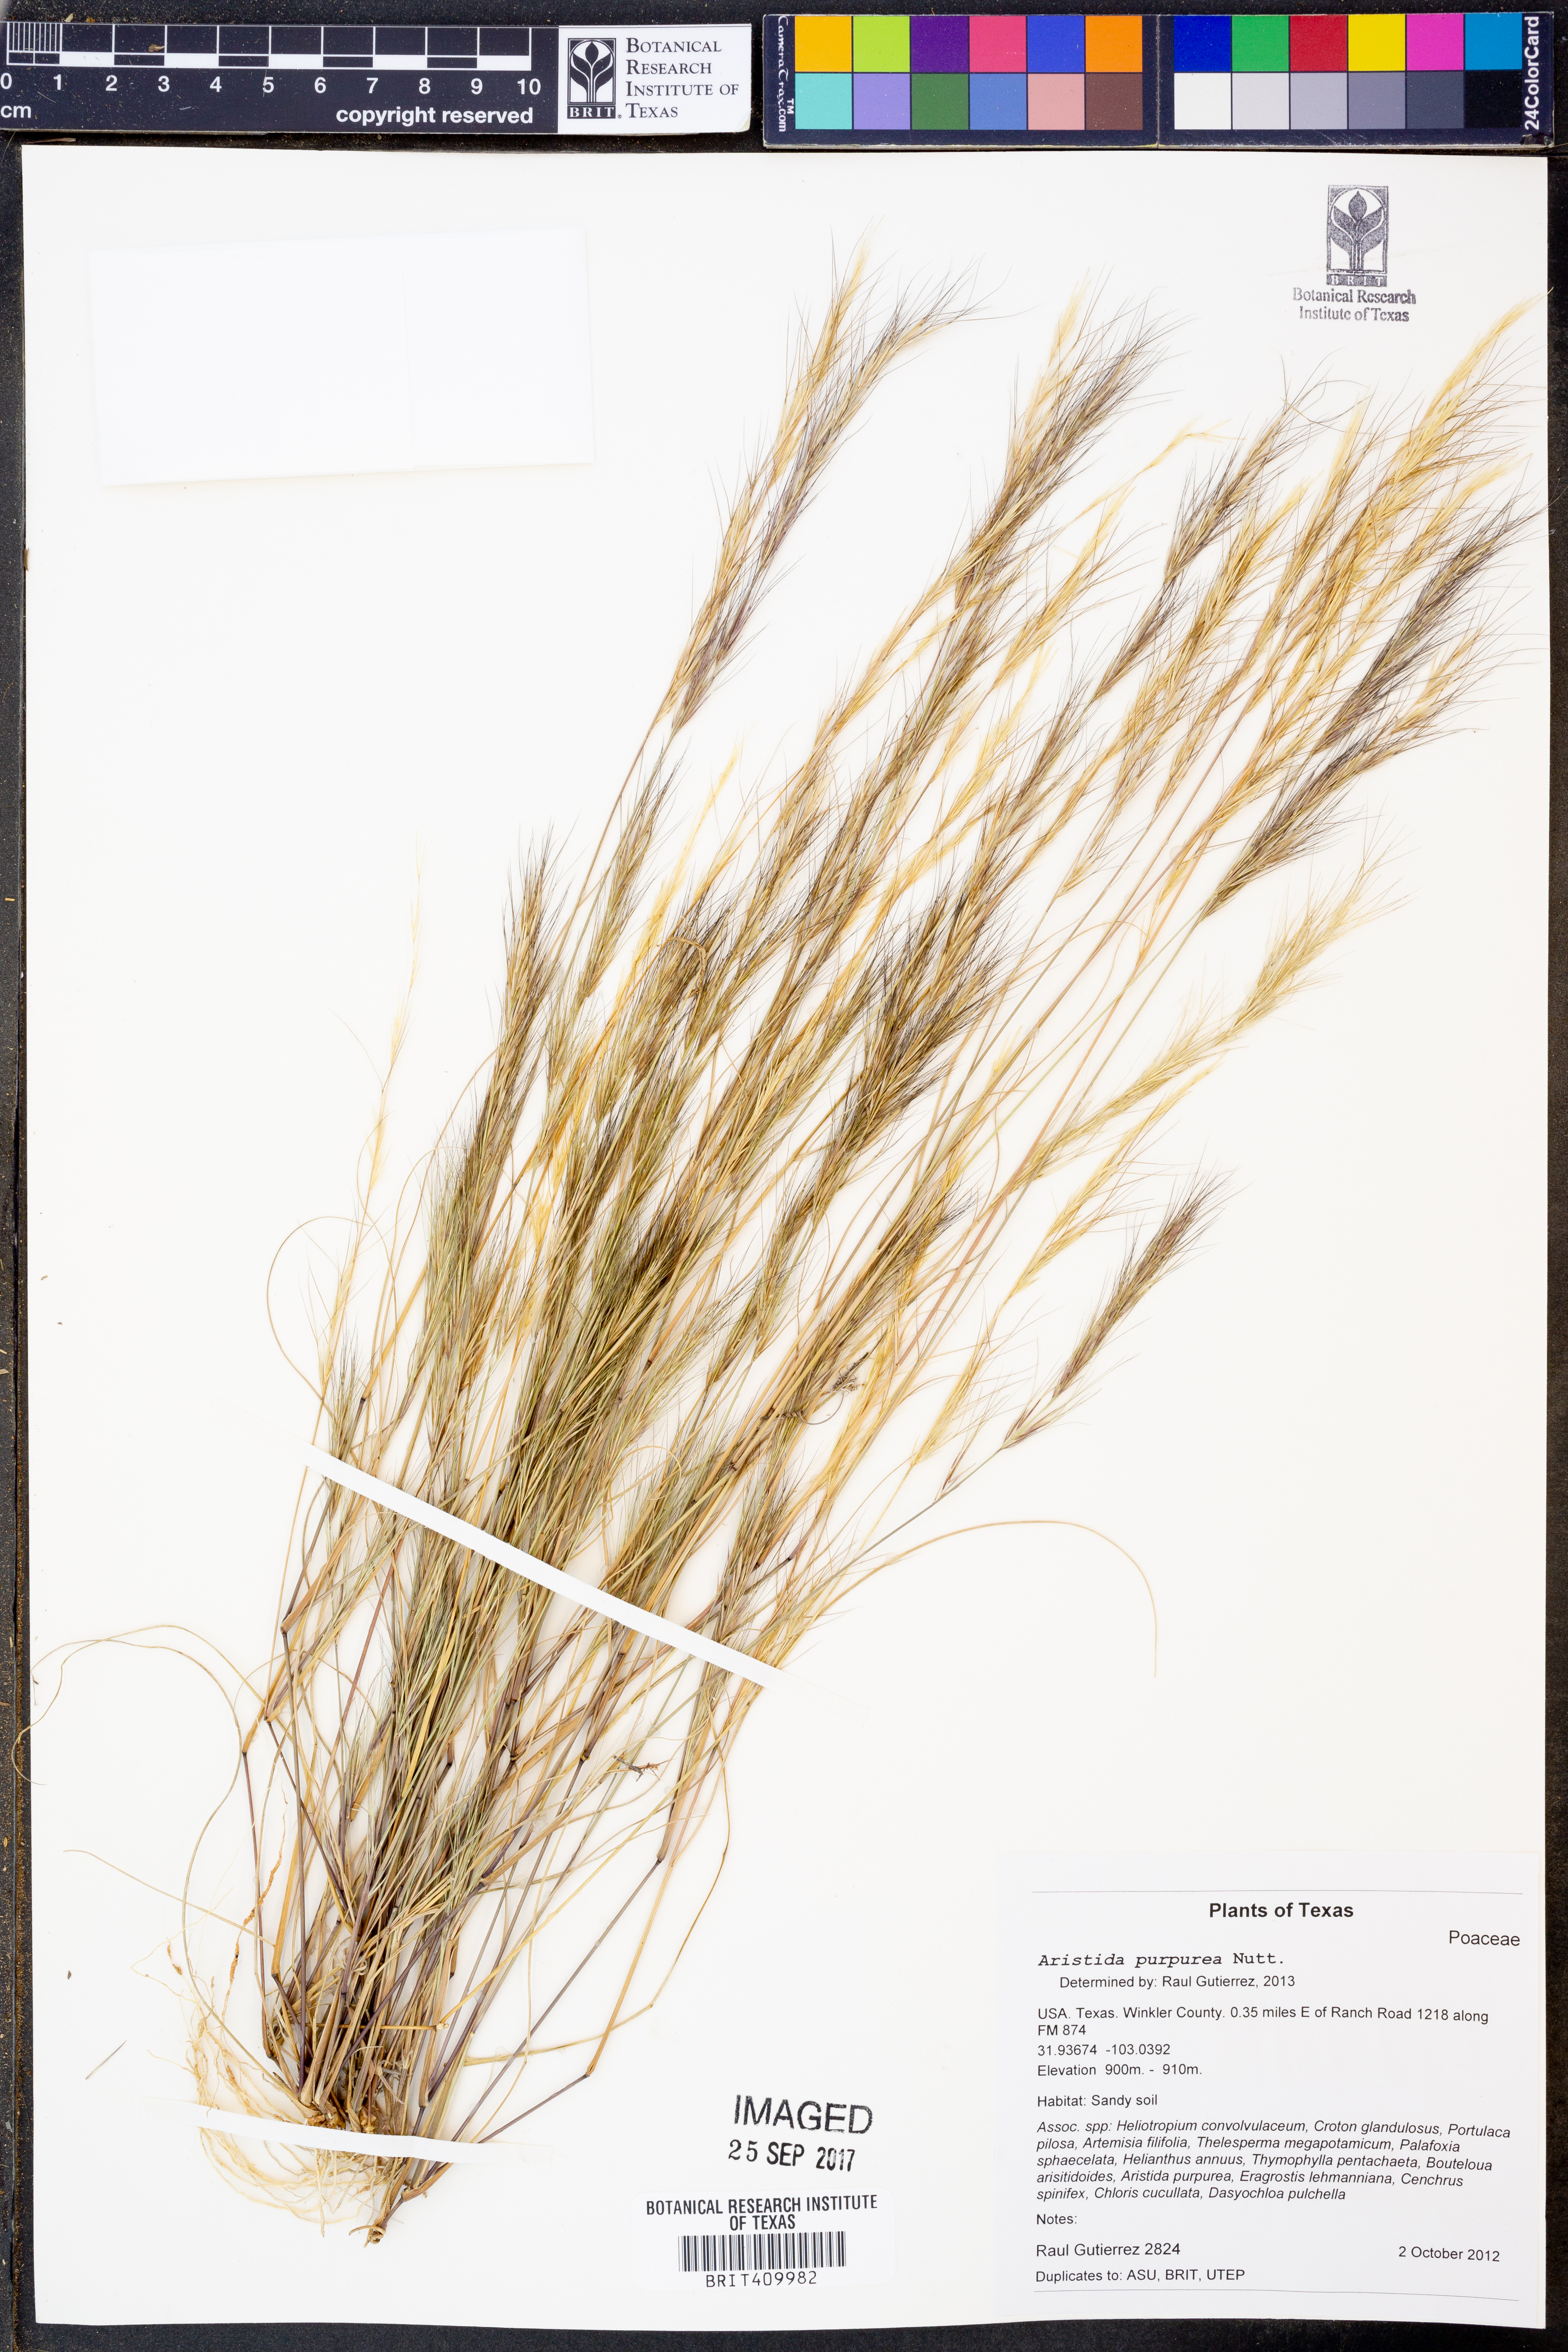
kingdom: Plantae
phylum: Tracheophyta
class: Liliopsida
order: Poales
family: Poaceae
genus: Aristida
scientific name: Aristida purpurea
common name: Purple threeawn
